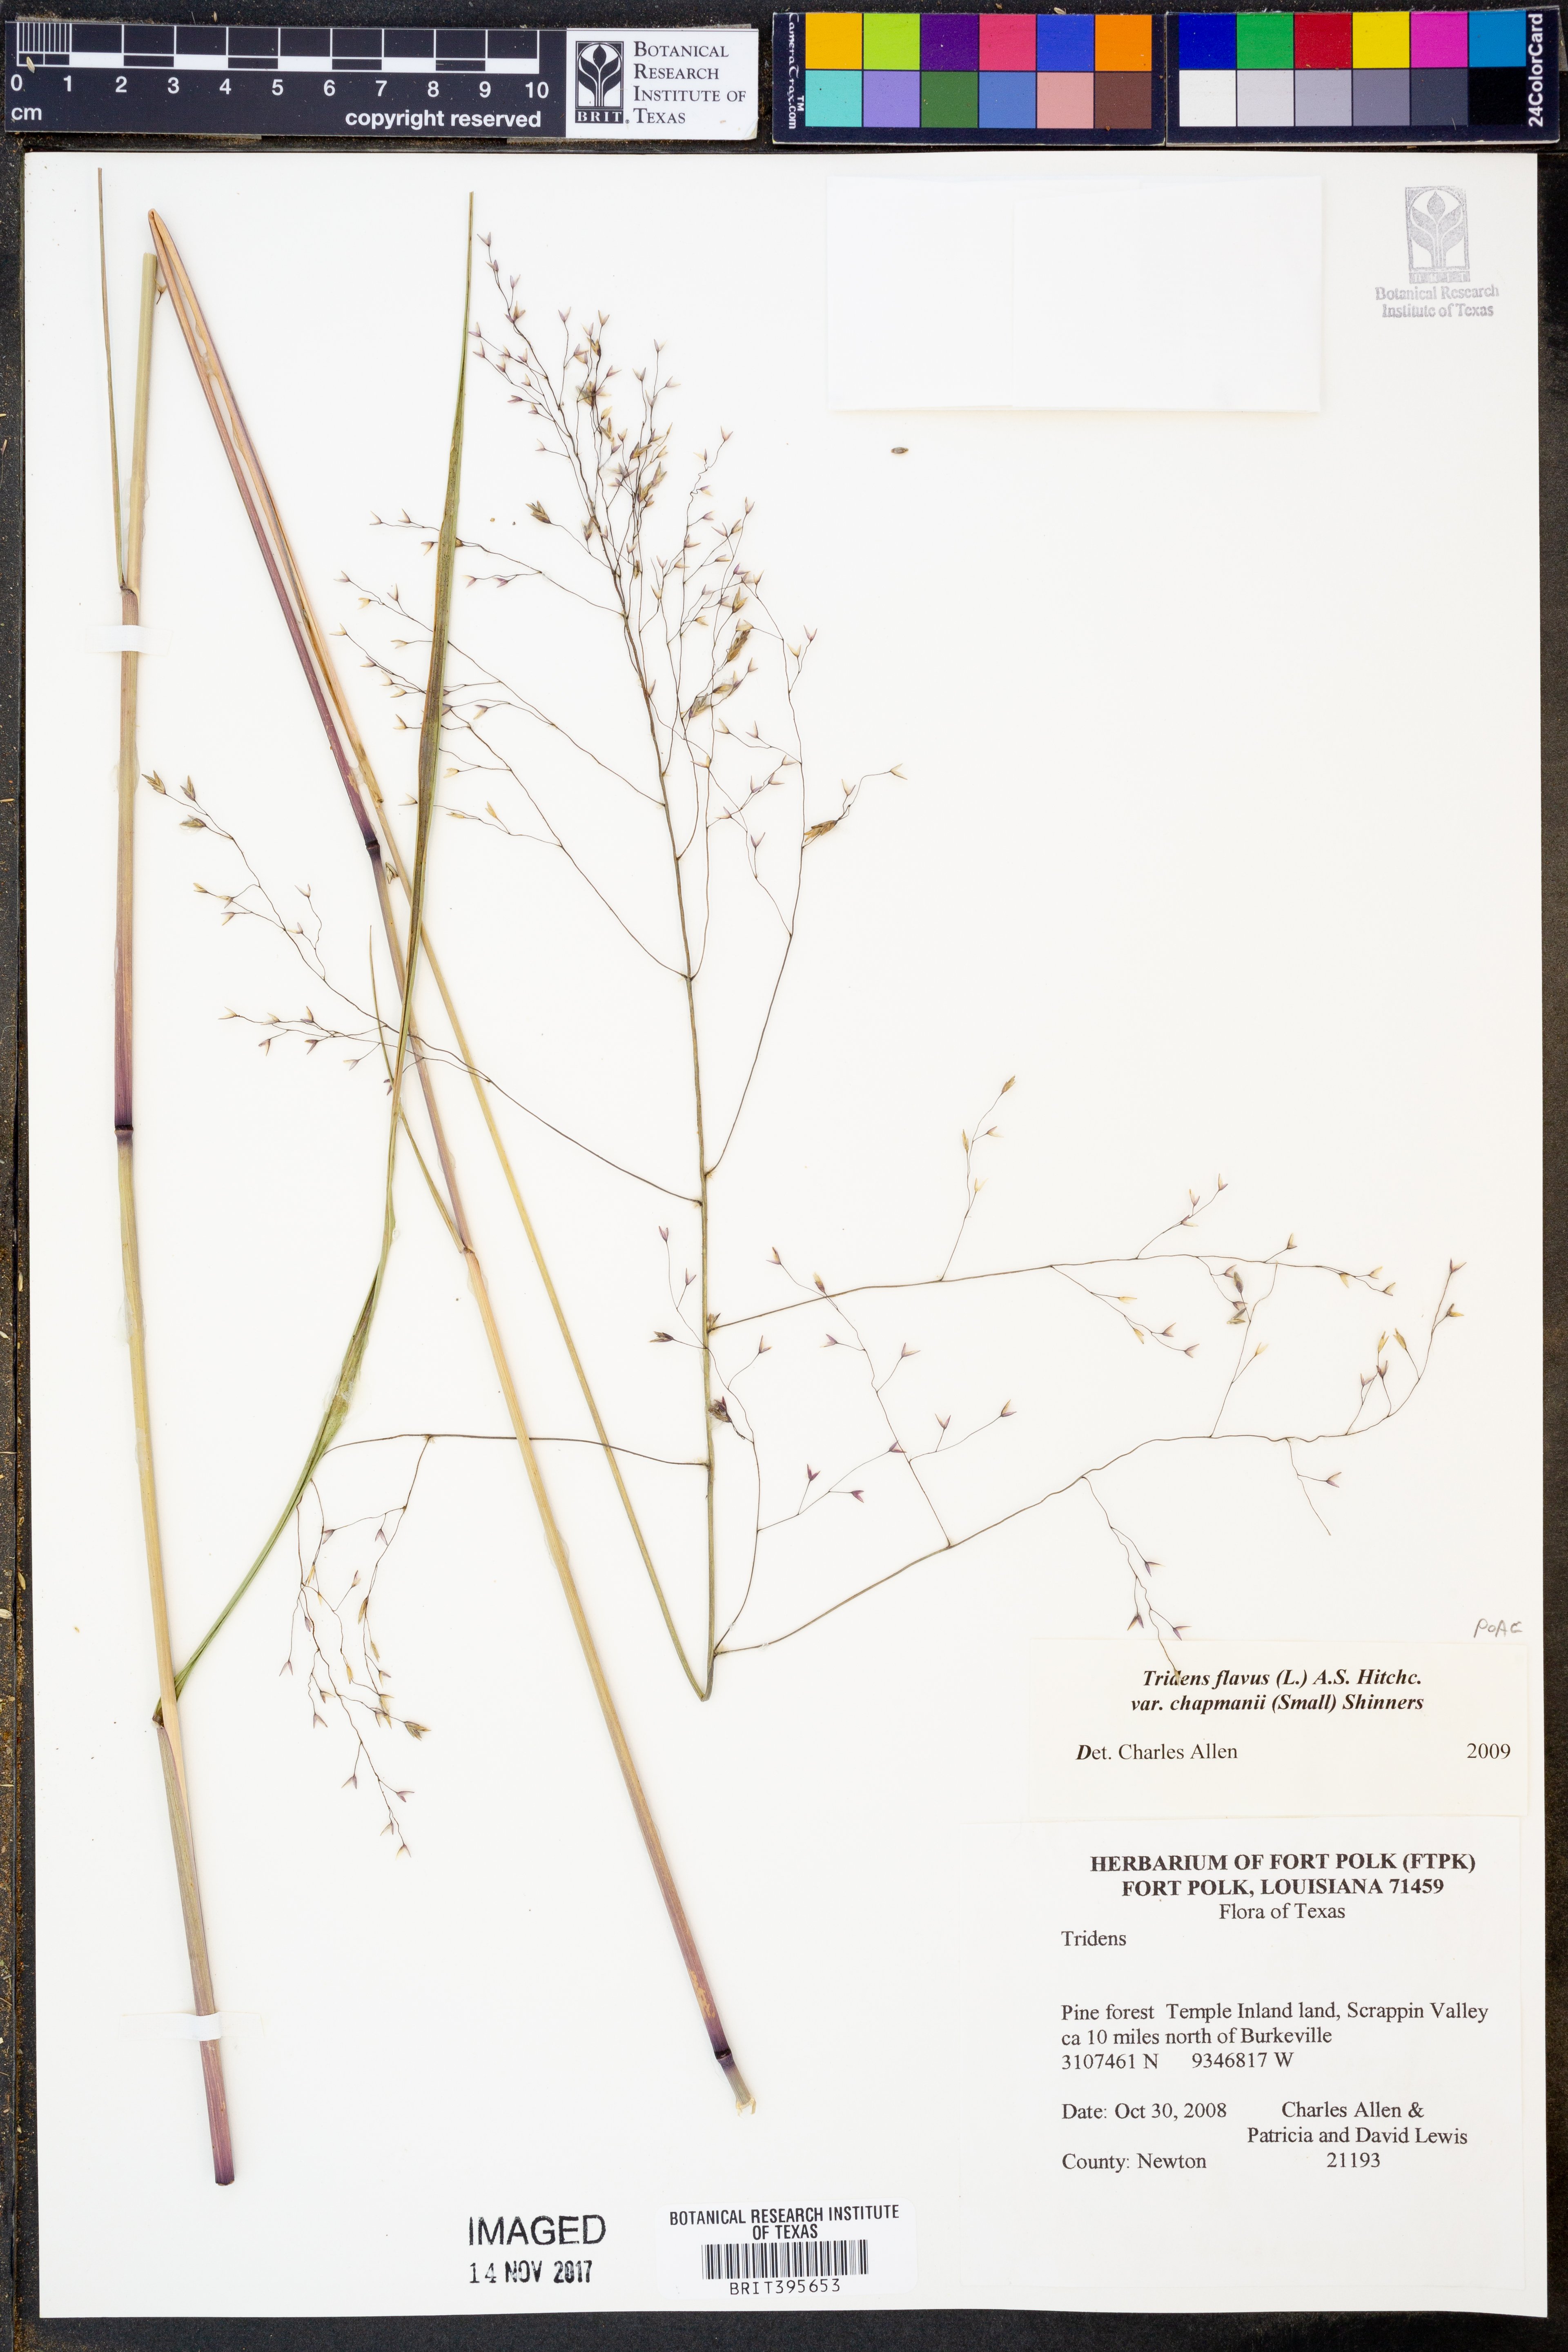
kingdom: Plantae
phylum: Tracheophyta
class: Liliopsida
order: Poales
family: Poaceae
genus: Tridens
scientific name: Tridens chapmanii
